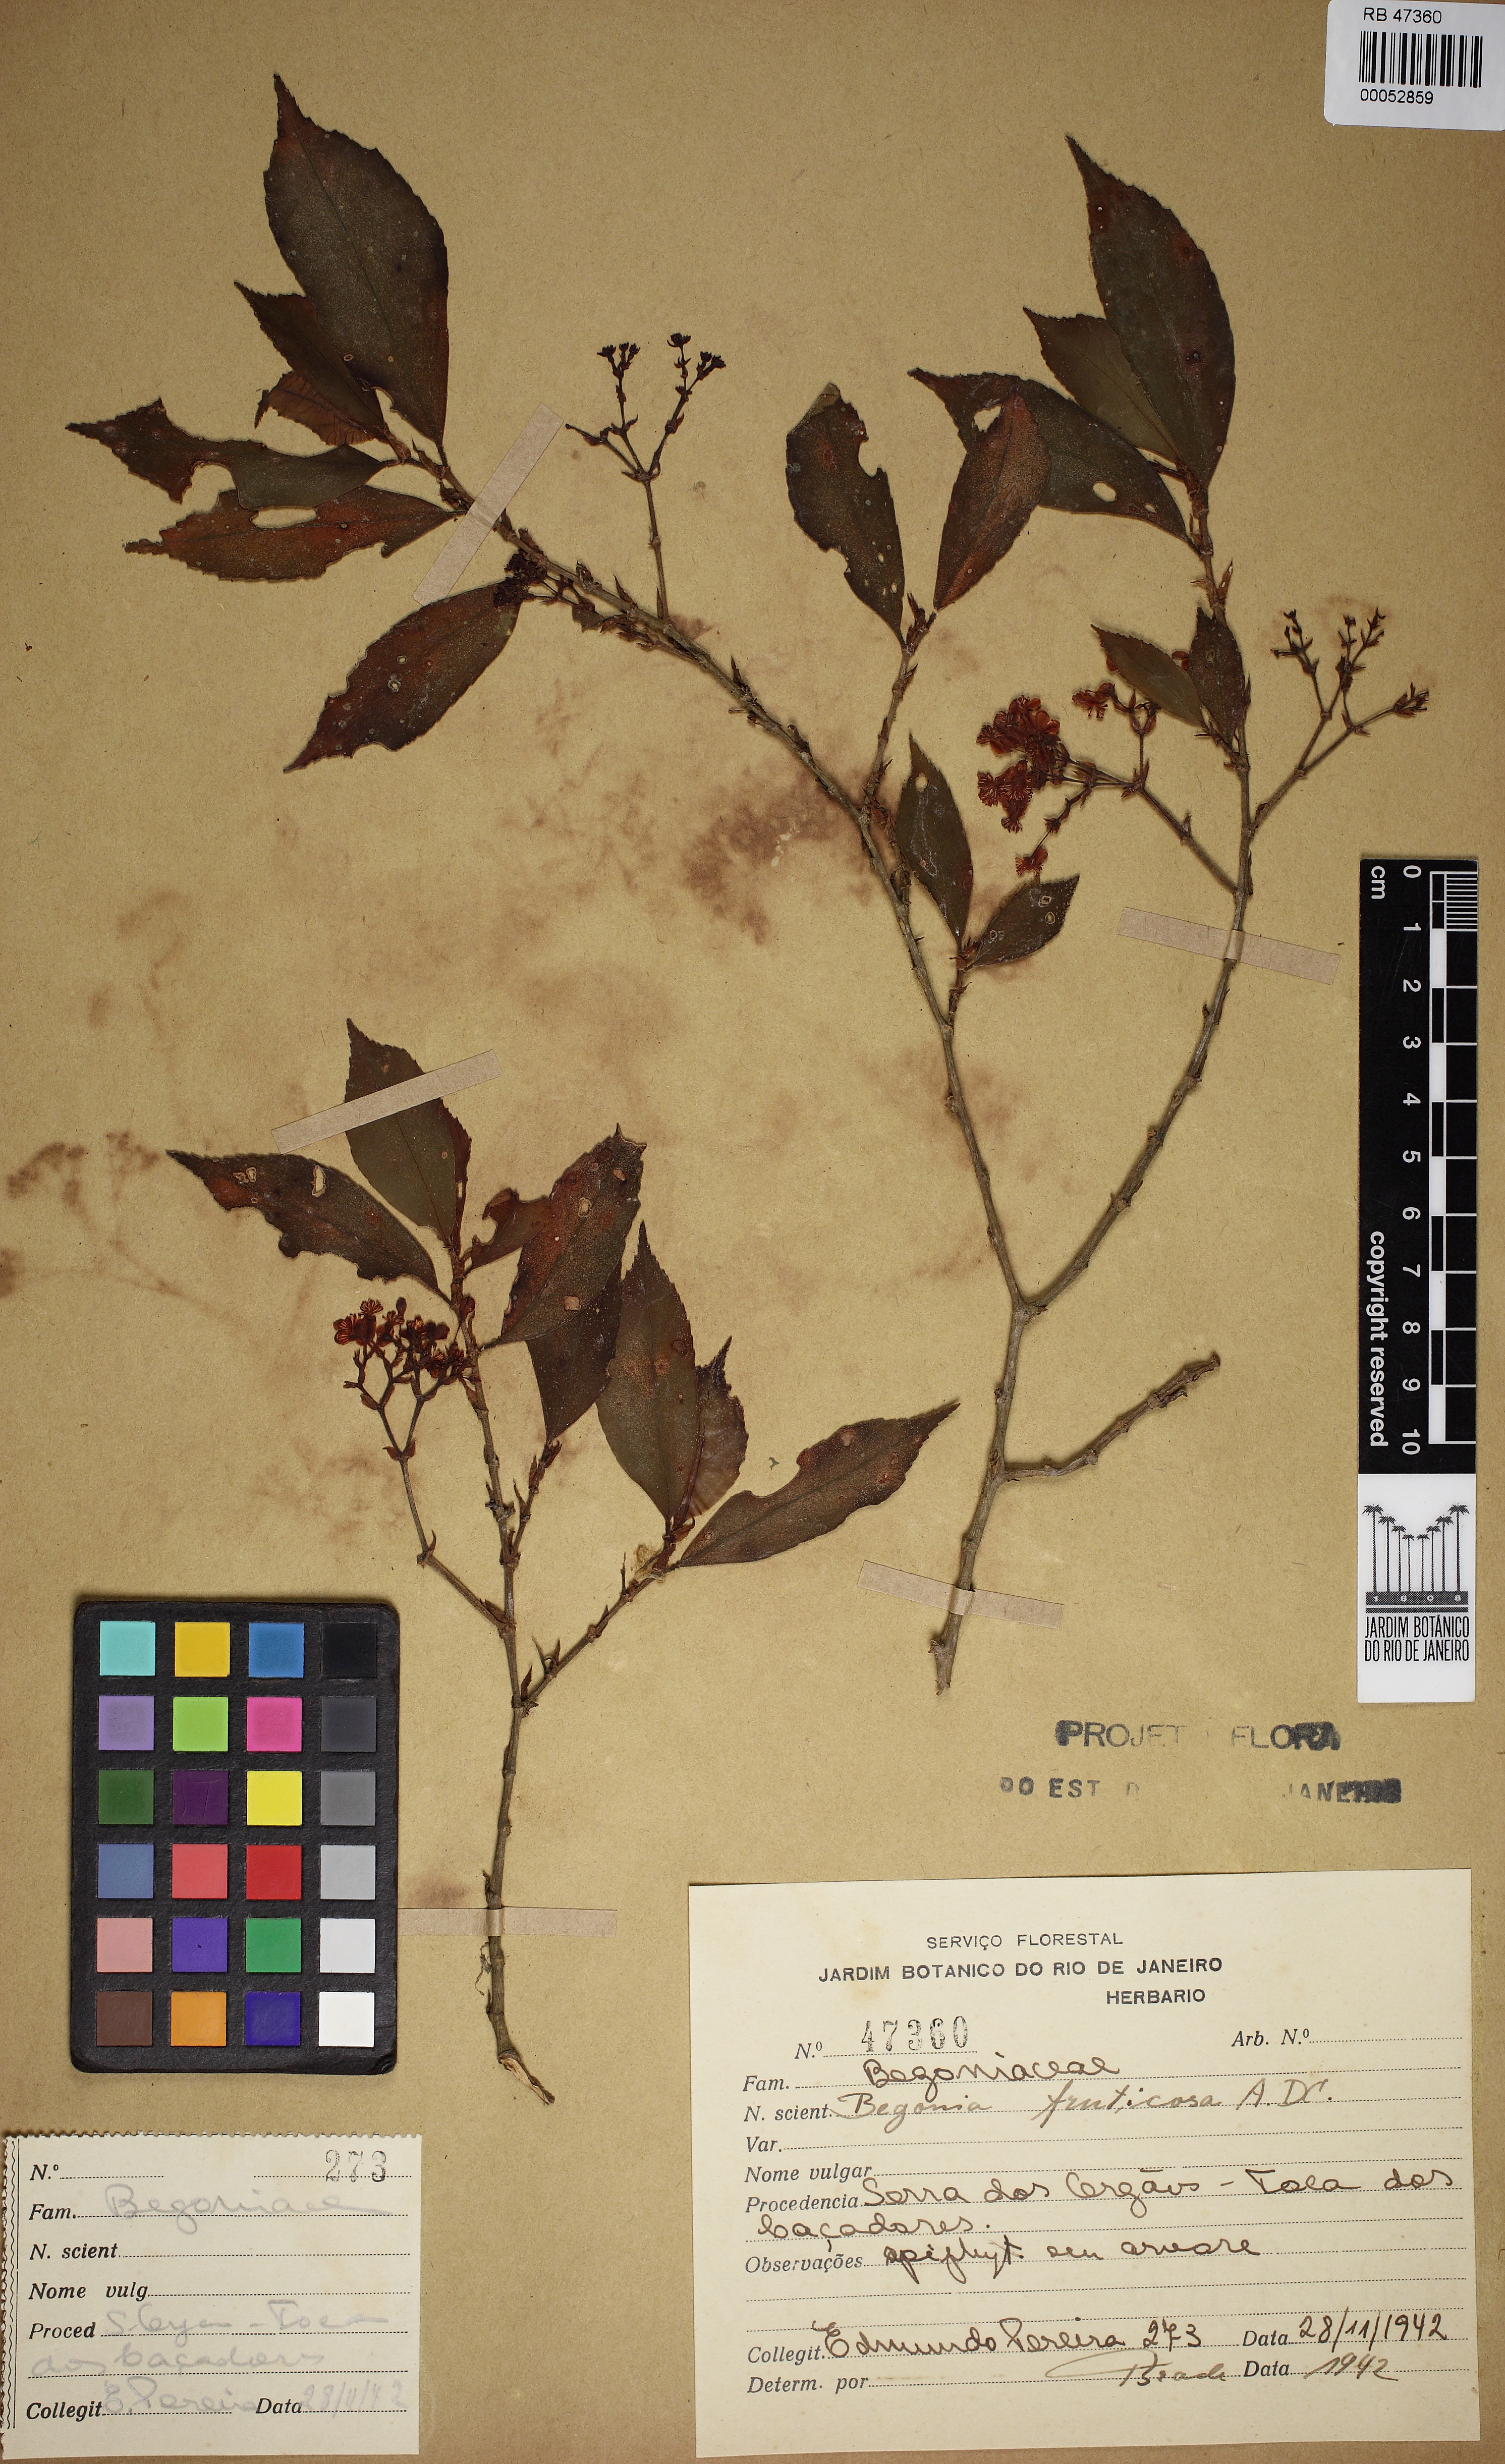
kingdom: Plantae
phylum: Tracheophyta
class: Magnoliopsida
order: Cucurbitales
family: Begoniaceae
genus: Begonia
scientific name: Begonia fruticosa
